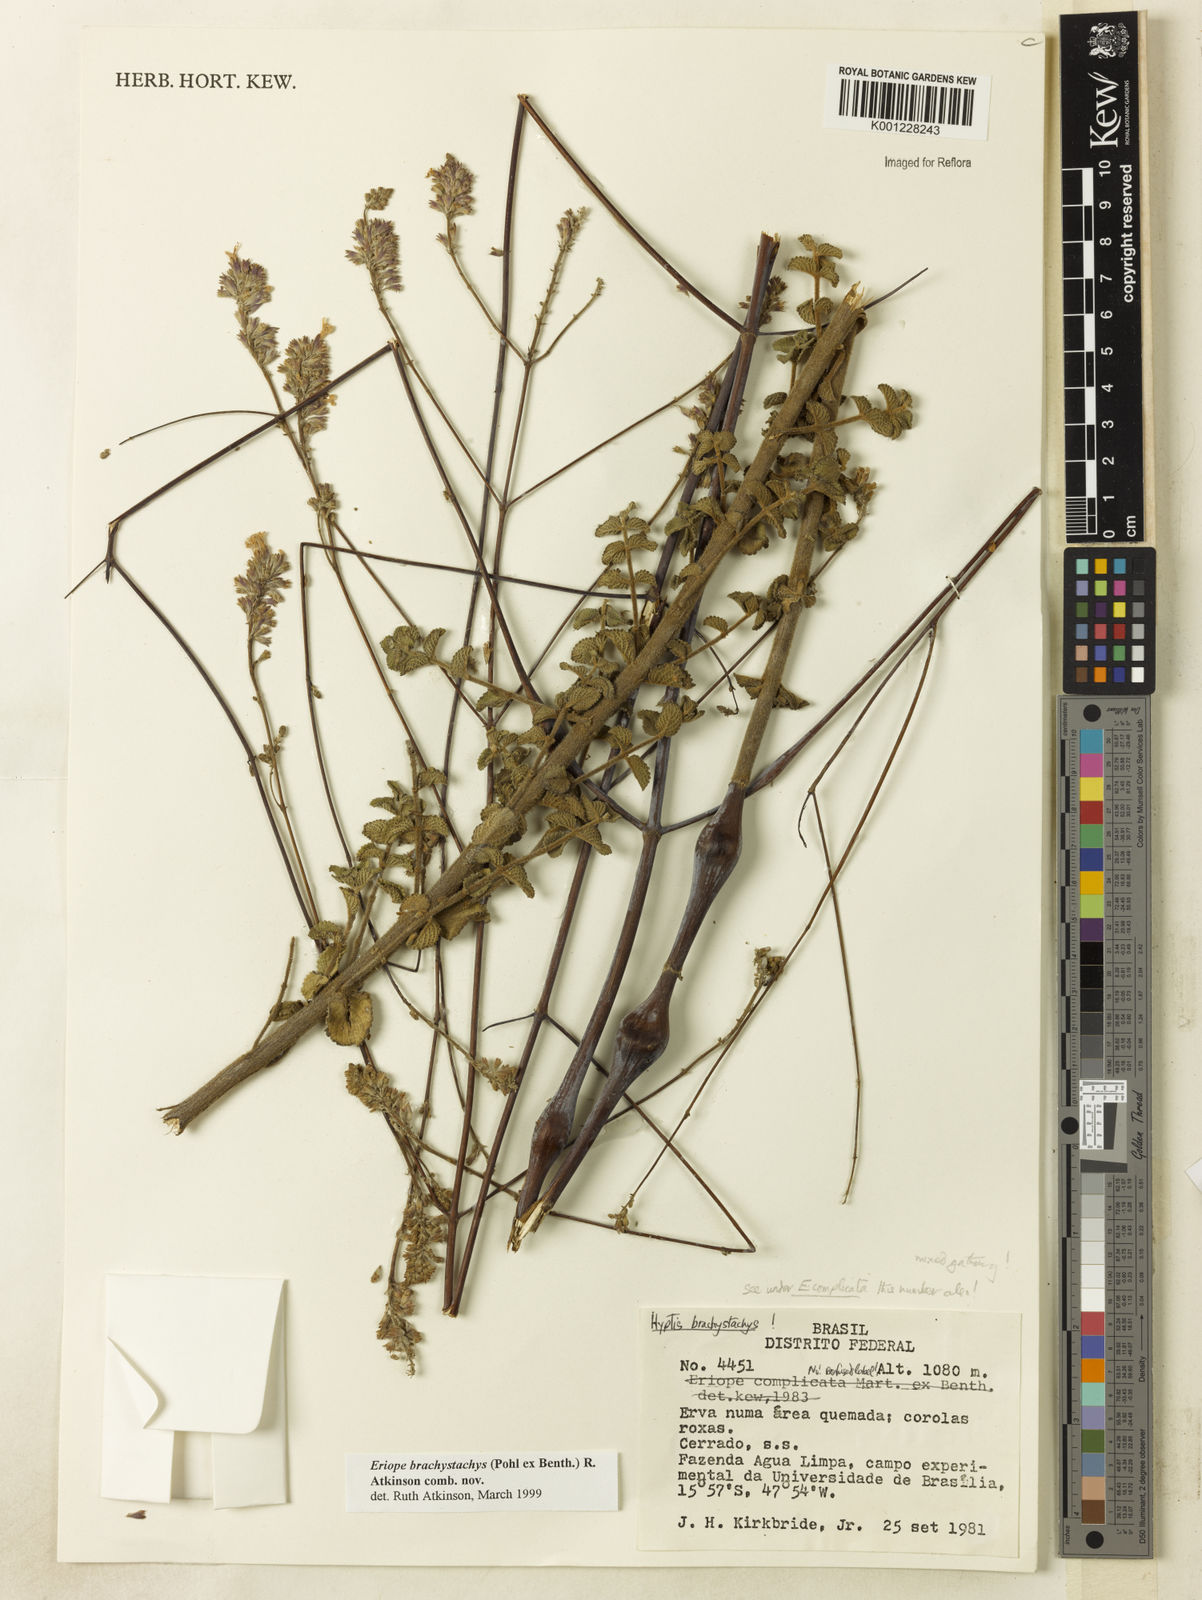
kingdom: Plantae
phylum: Tracheophyta
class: Magnoliopsida
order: Lamiales
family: Lamiaceae
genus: Hypenia
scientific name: Hypenia brachystachys
